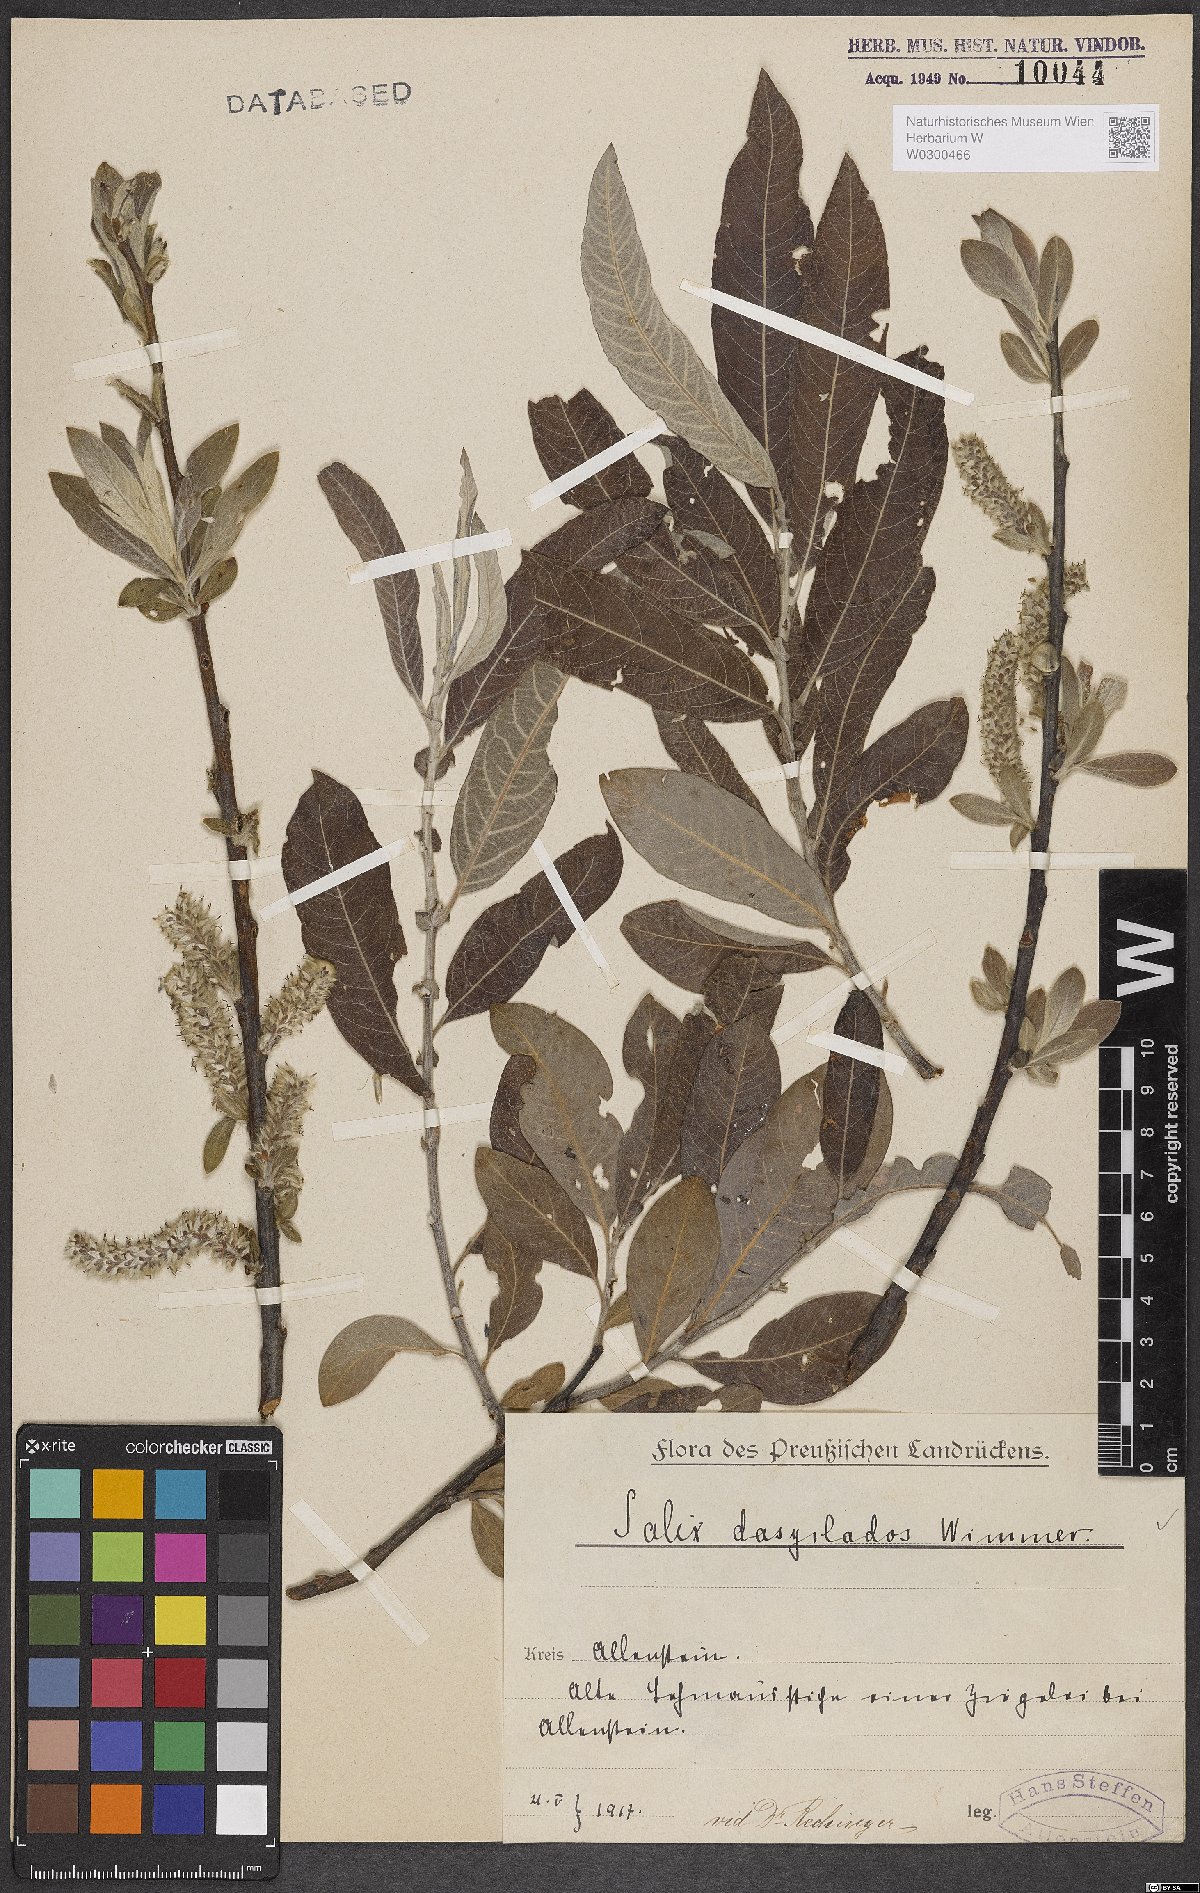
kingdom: Plantae
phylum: Tracheophyta
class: Magnoliopsida
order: Malpighiales
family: Salicaceae
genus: Salix
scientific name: Salix gmelinii
